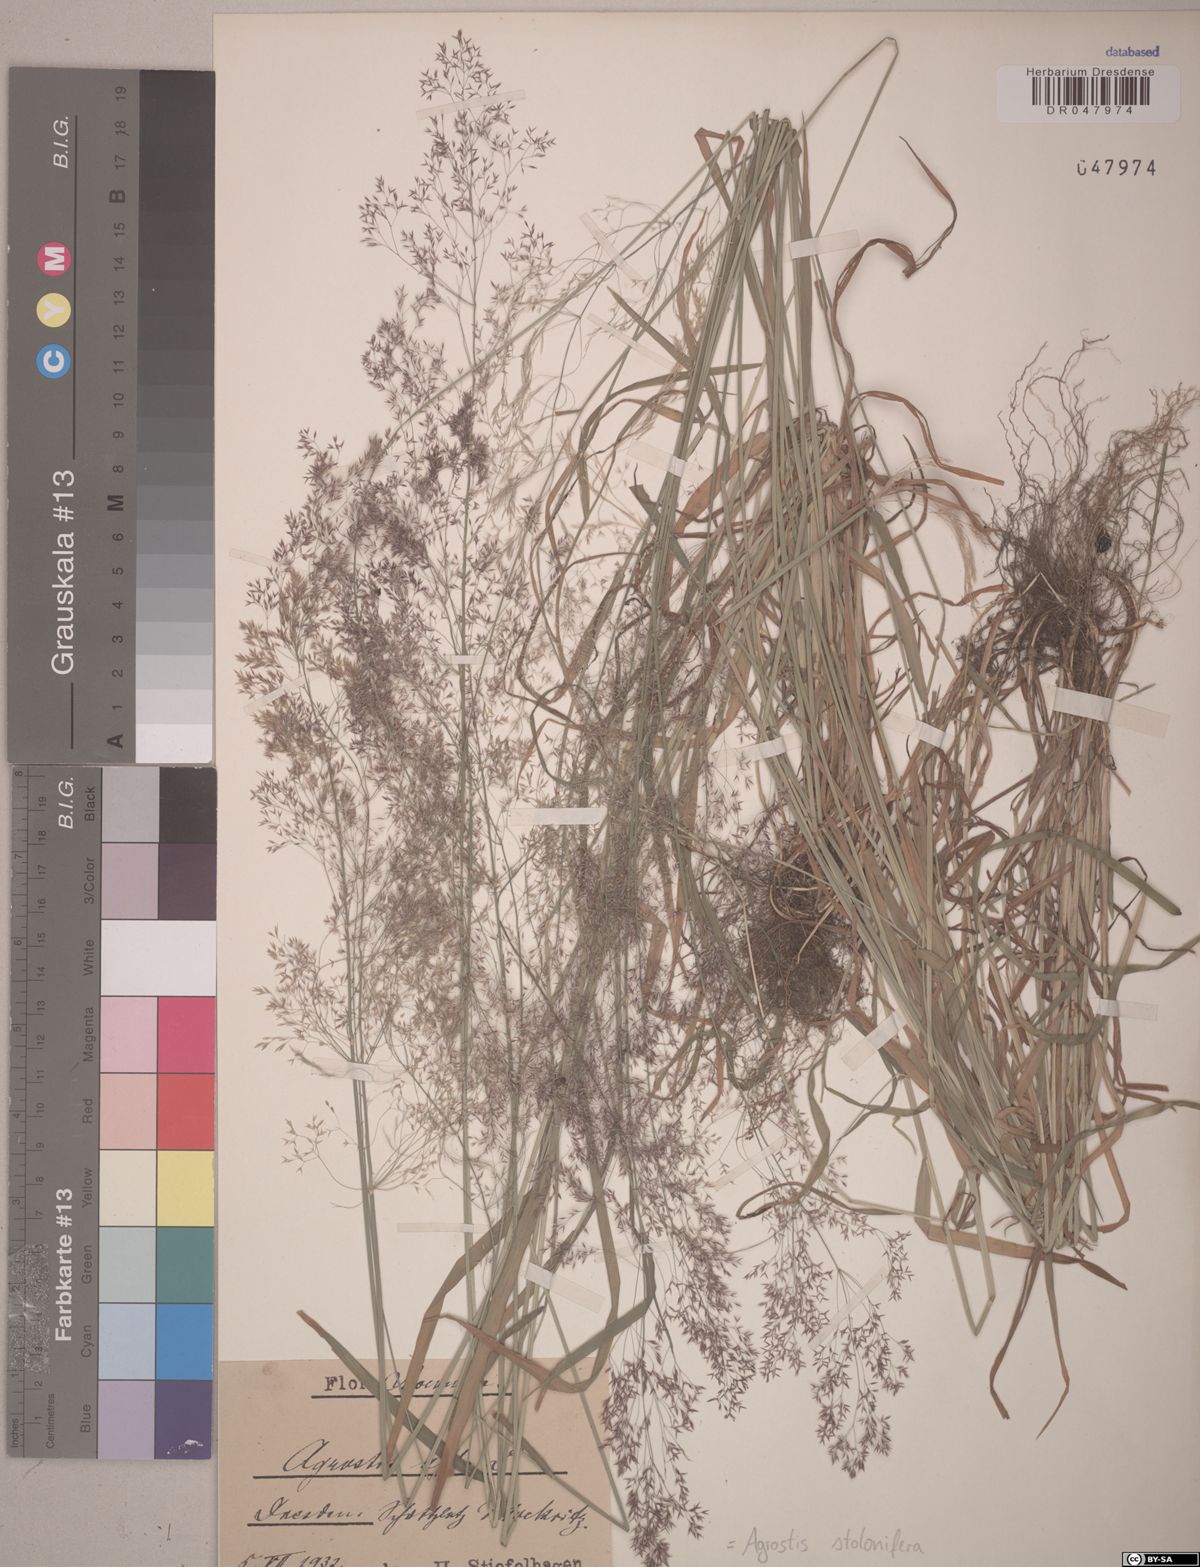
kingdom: Plantae
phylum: Tracheophyta
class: Liliopsida
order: Poales
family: Poaceae
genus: Agrostis
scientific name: Agrostis stolonifera
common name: Creeping bentgrass
